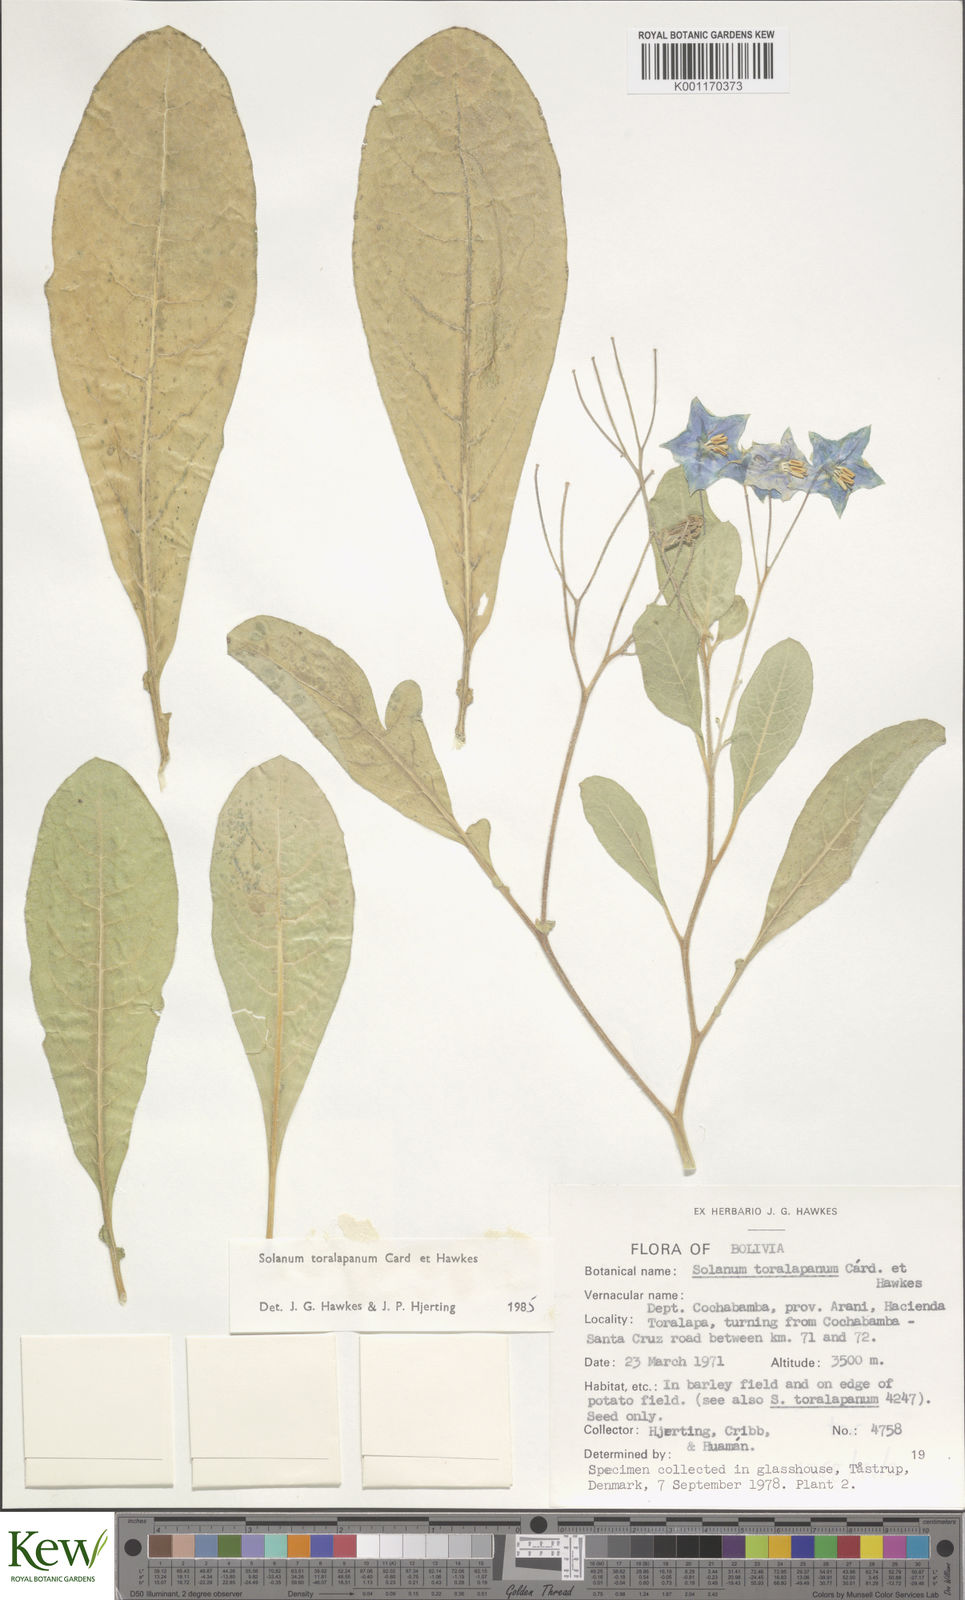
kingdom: Plantae
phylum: Tracheophyta
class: Magnoliopsida
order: Solanales
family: Solanaceae
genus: Solanum
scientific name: Solanum
